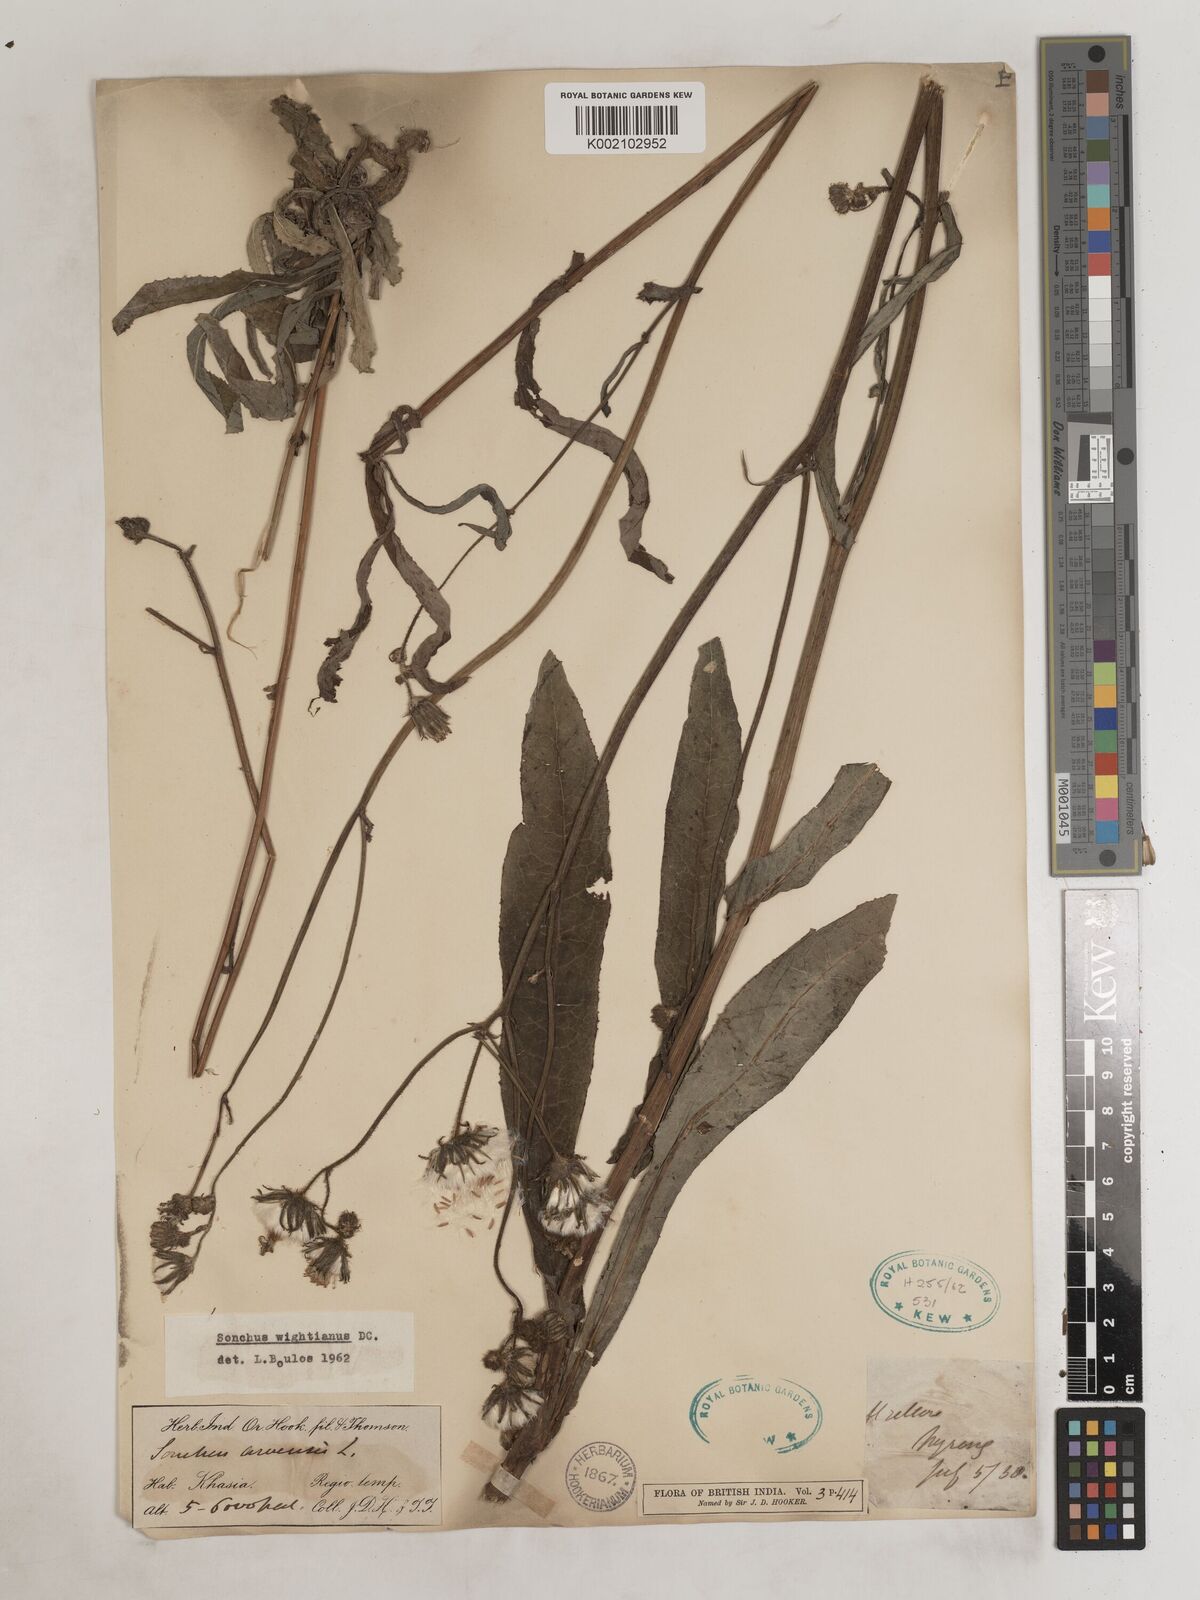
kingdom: Plantae
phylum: Tracheophyta
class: Magnoliopsida
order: Asterales
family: Asteraceae
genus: Sonchus
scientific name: Sonchus arvensis
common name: Perennial sow-thistle
